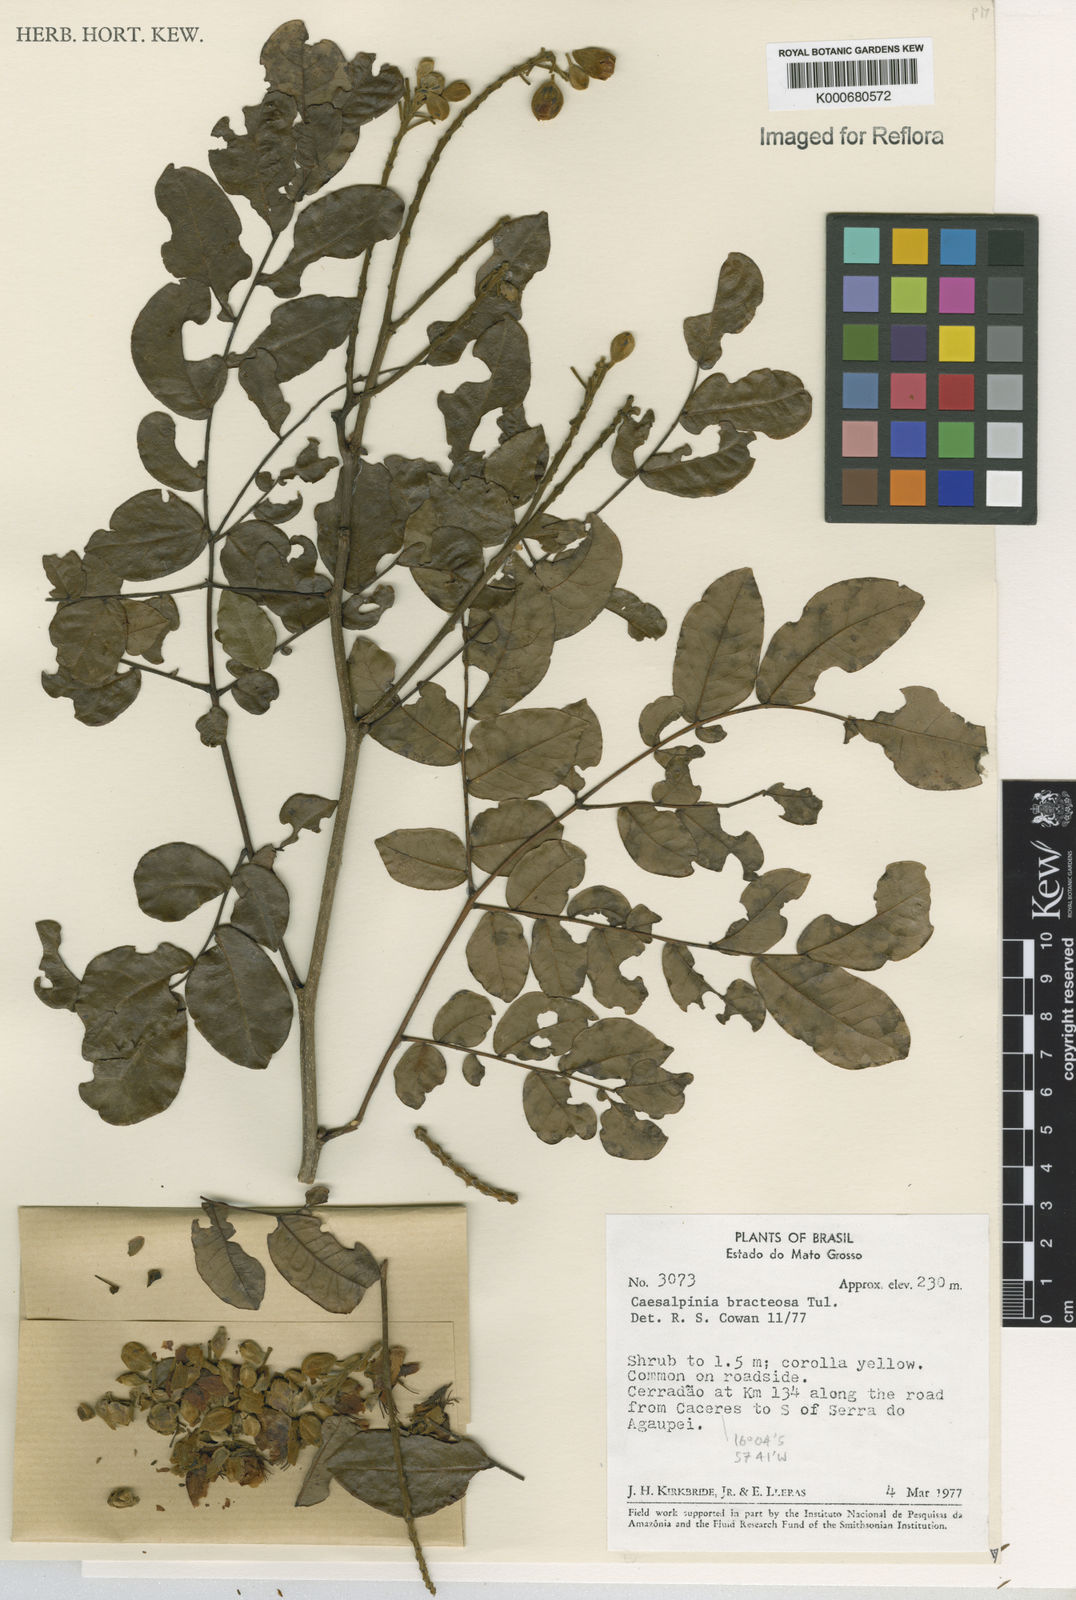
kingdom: Plantae
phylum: Tracheophyta
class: Magnoliopsida
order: Fabales
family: Fabaceae
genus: Cenostigma
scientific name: Cenostigma bracteosum
